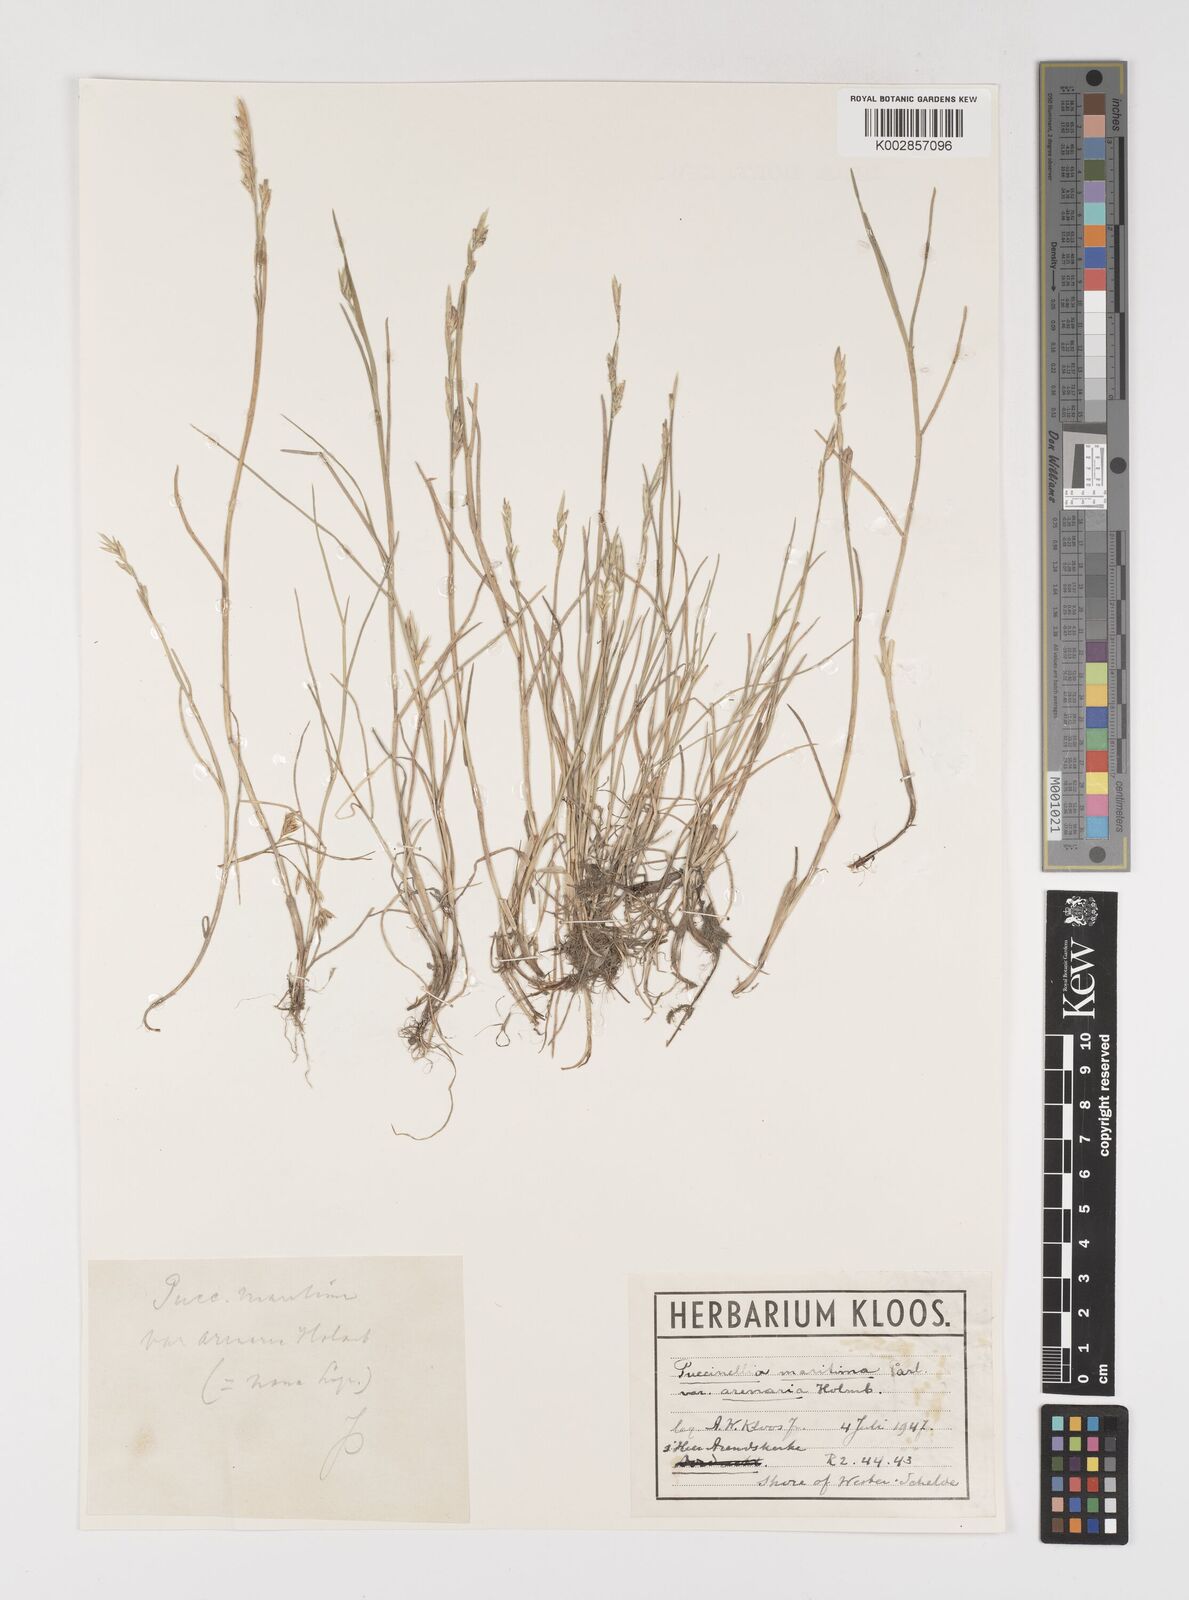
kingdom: Plantae
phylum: Tracheophyta
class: Liliopsida
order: Poales
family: Poaceae
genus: Puccinellia
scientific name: Puccinellia maritima
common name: Common saltmarsh grass
